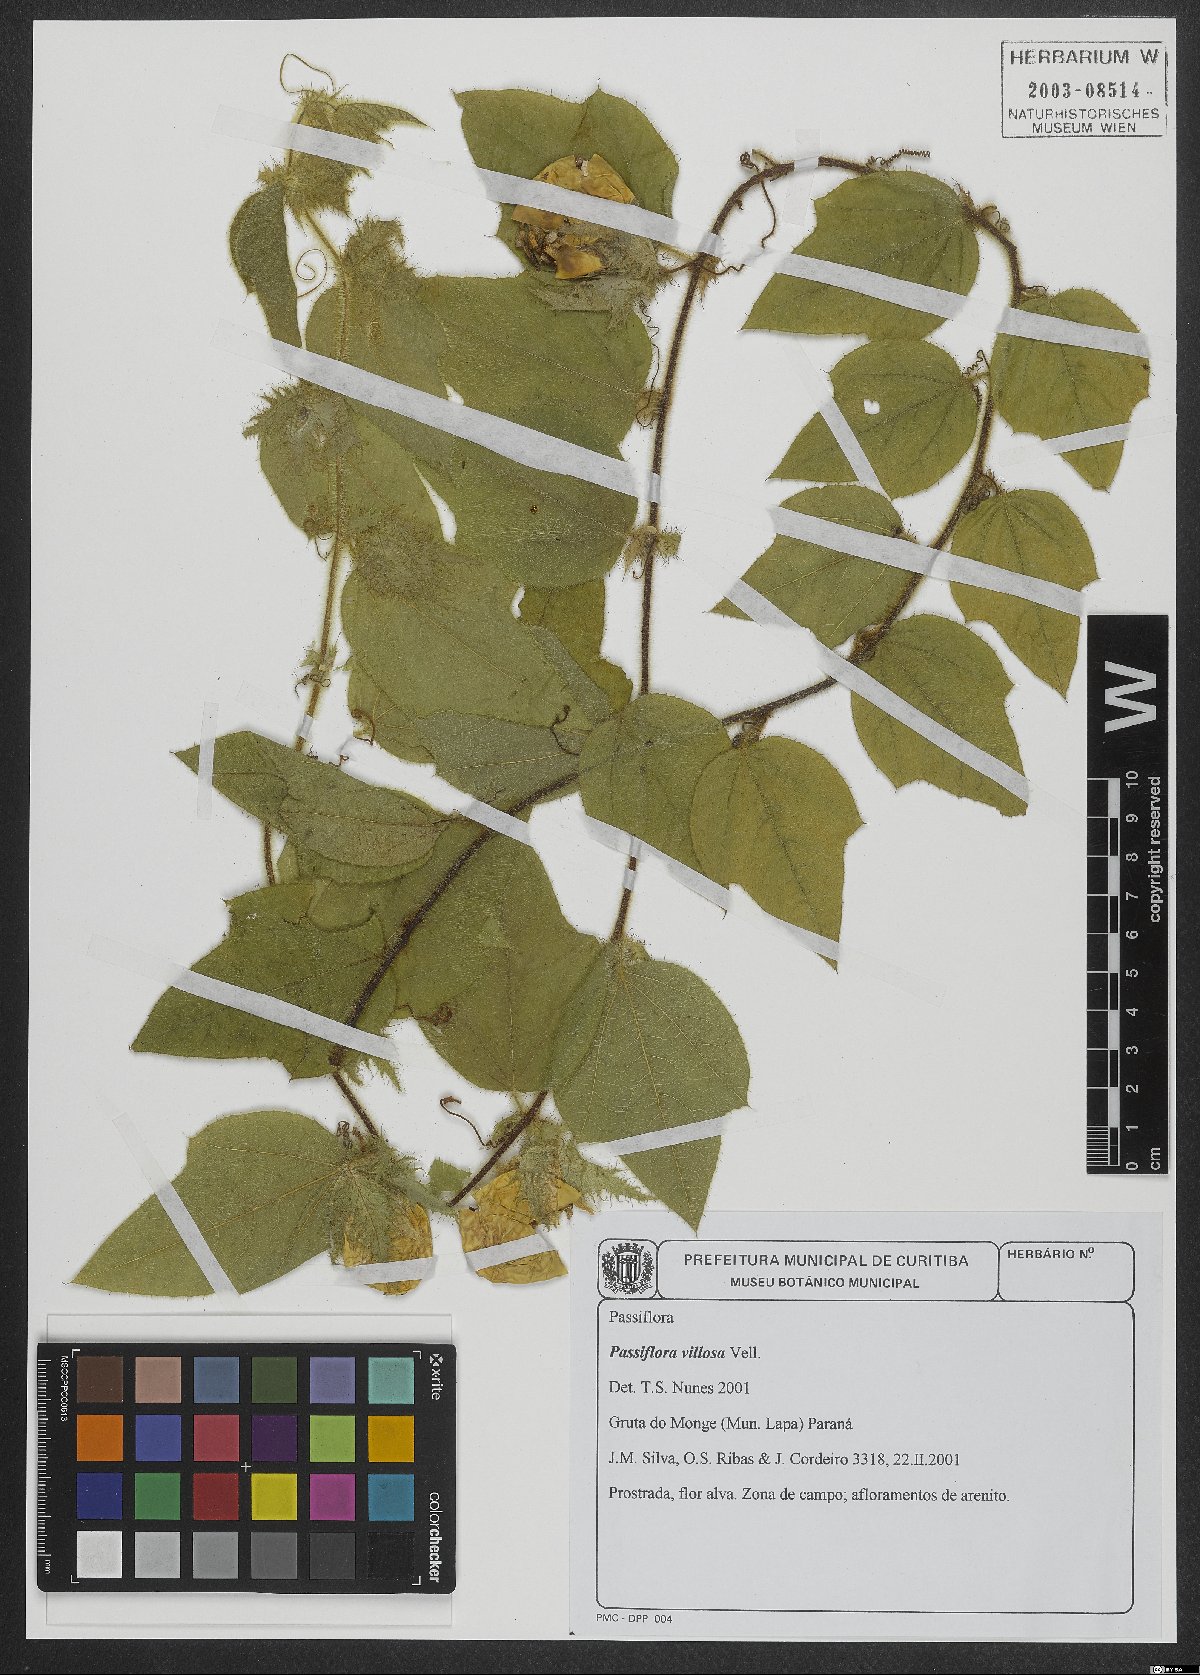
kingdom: Plantae
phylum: Tracheophyta
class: Magnoliopsida
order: Malpighiales
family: Passifloraceae
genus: Passiflora
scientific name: Passiflora villosa
